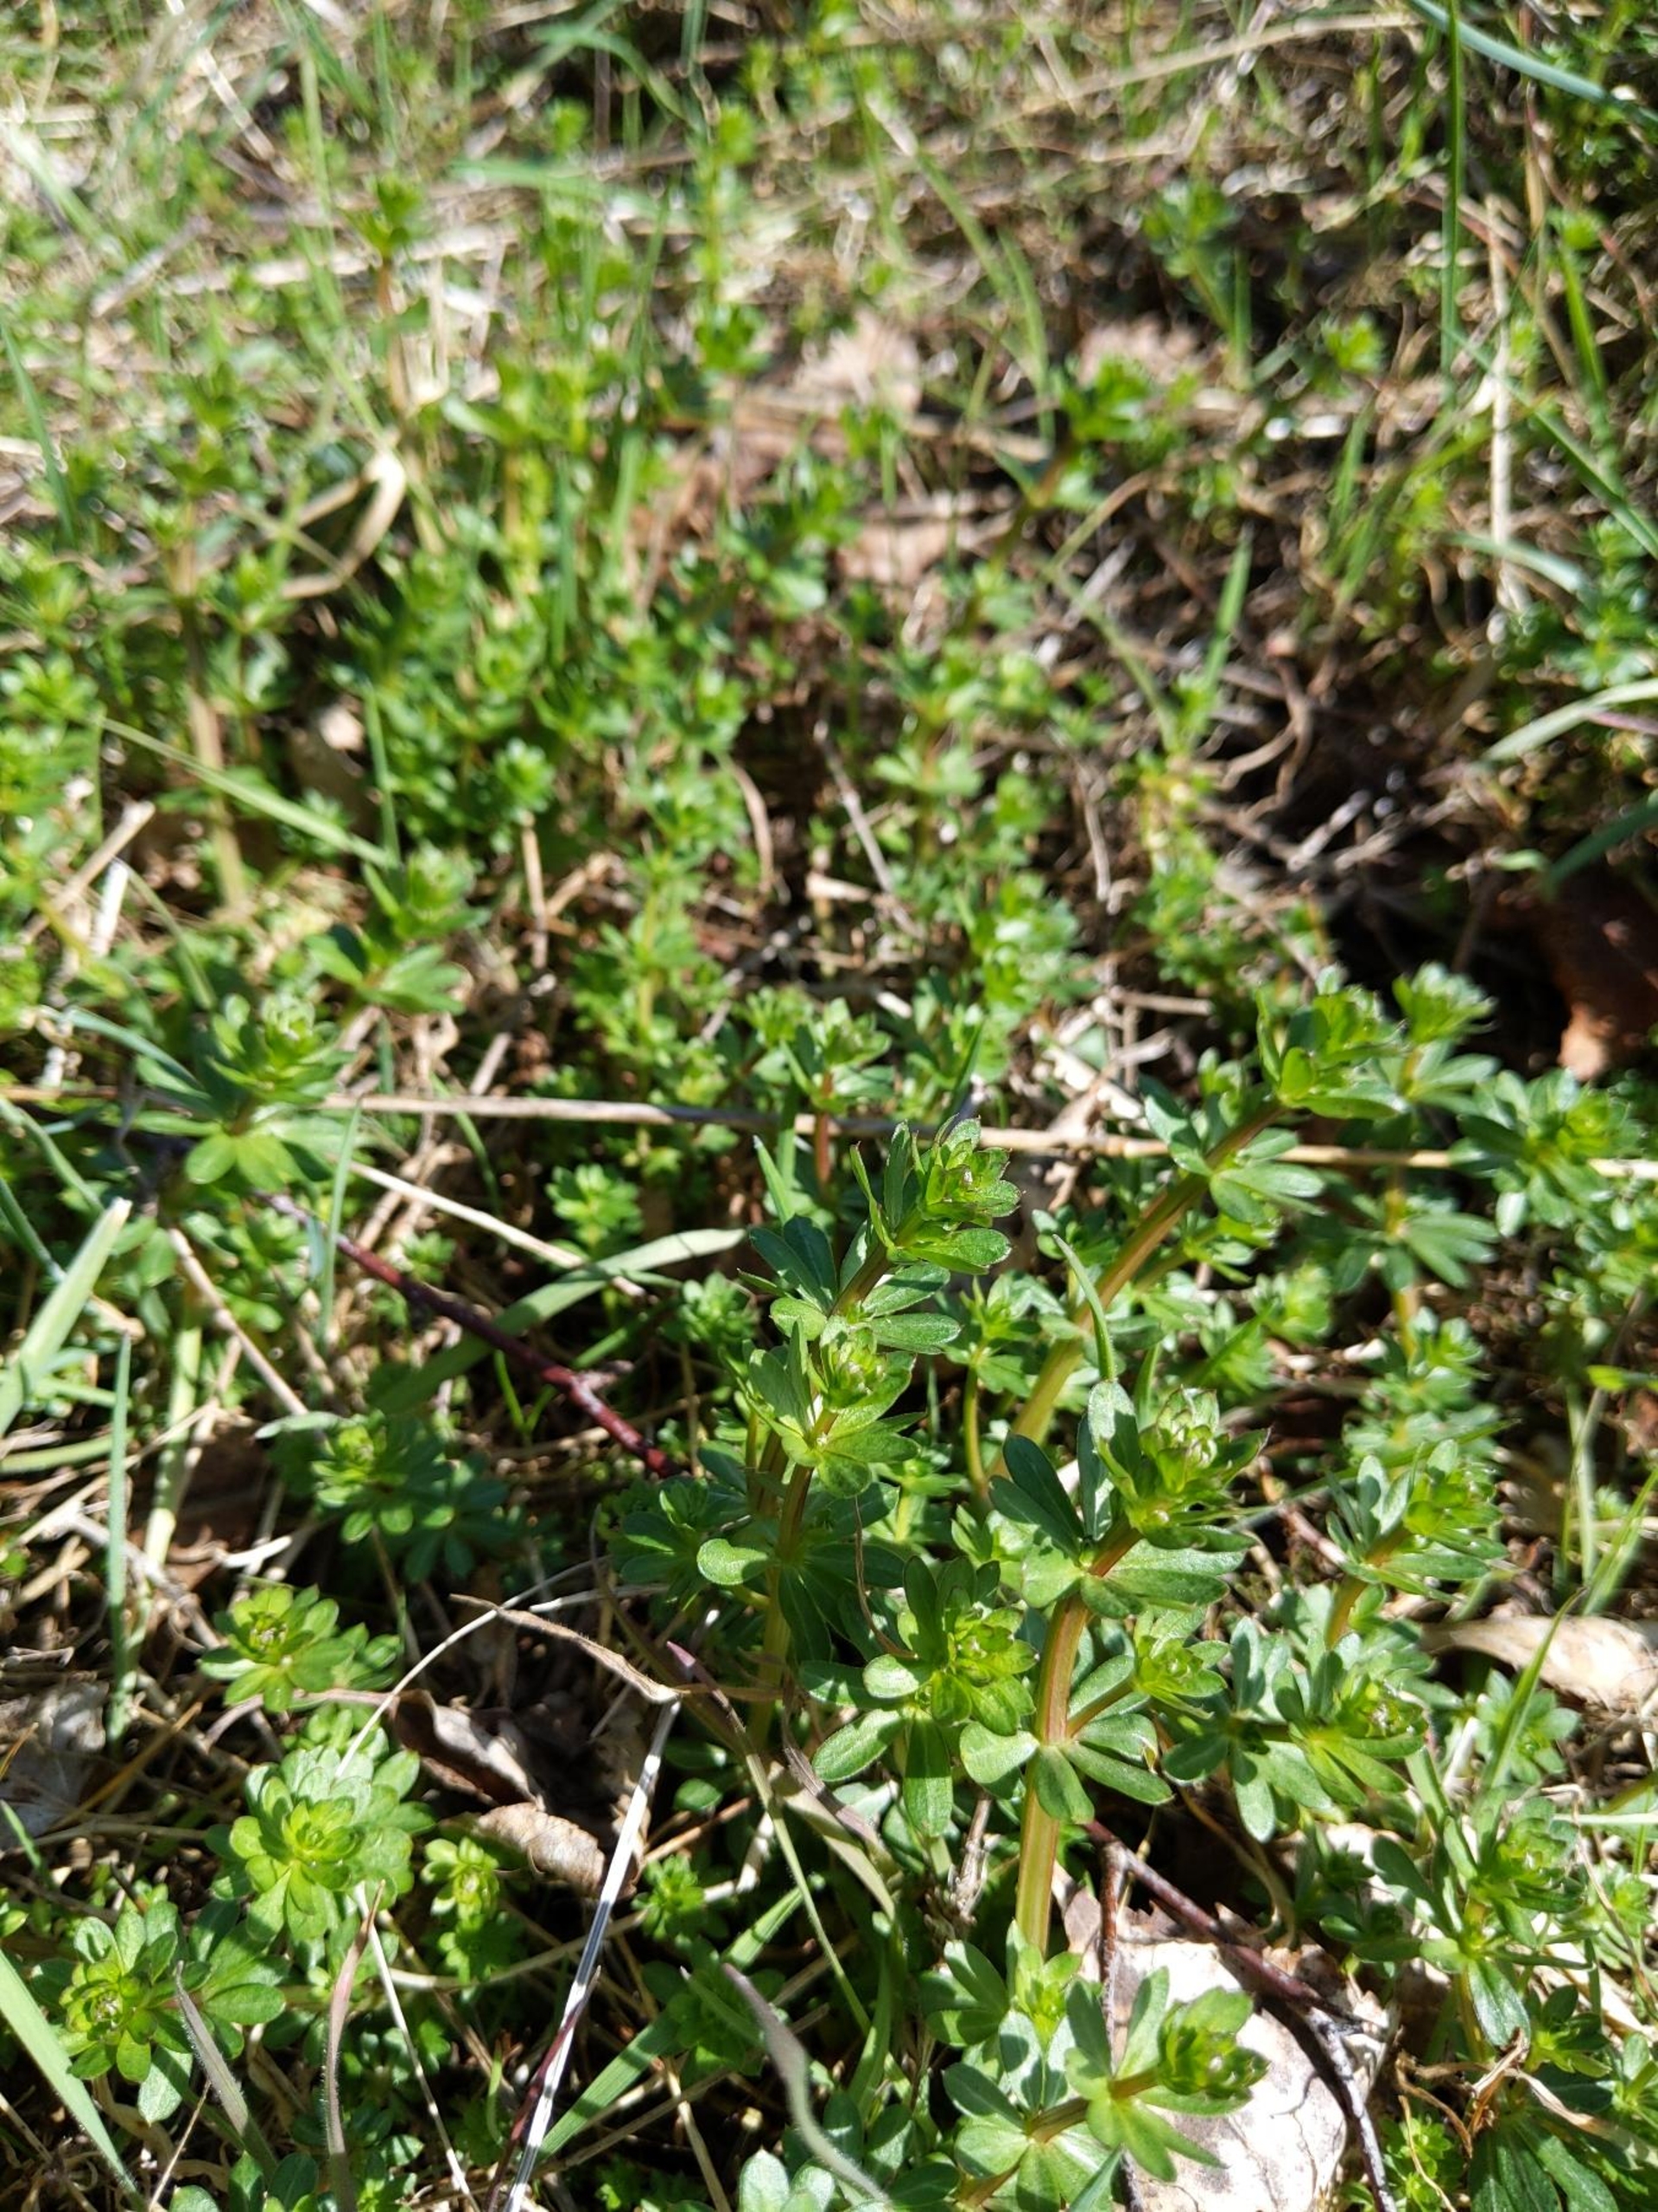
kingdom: Plantae
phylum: Tracheophyta
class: Magnoliopsida
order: Gentianales
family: Rubiaceae
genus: Galium
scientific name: Galium mollugo
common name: Hvid snerre
